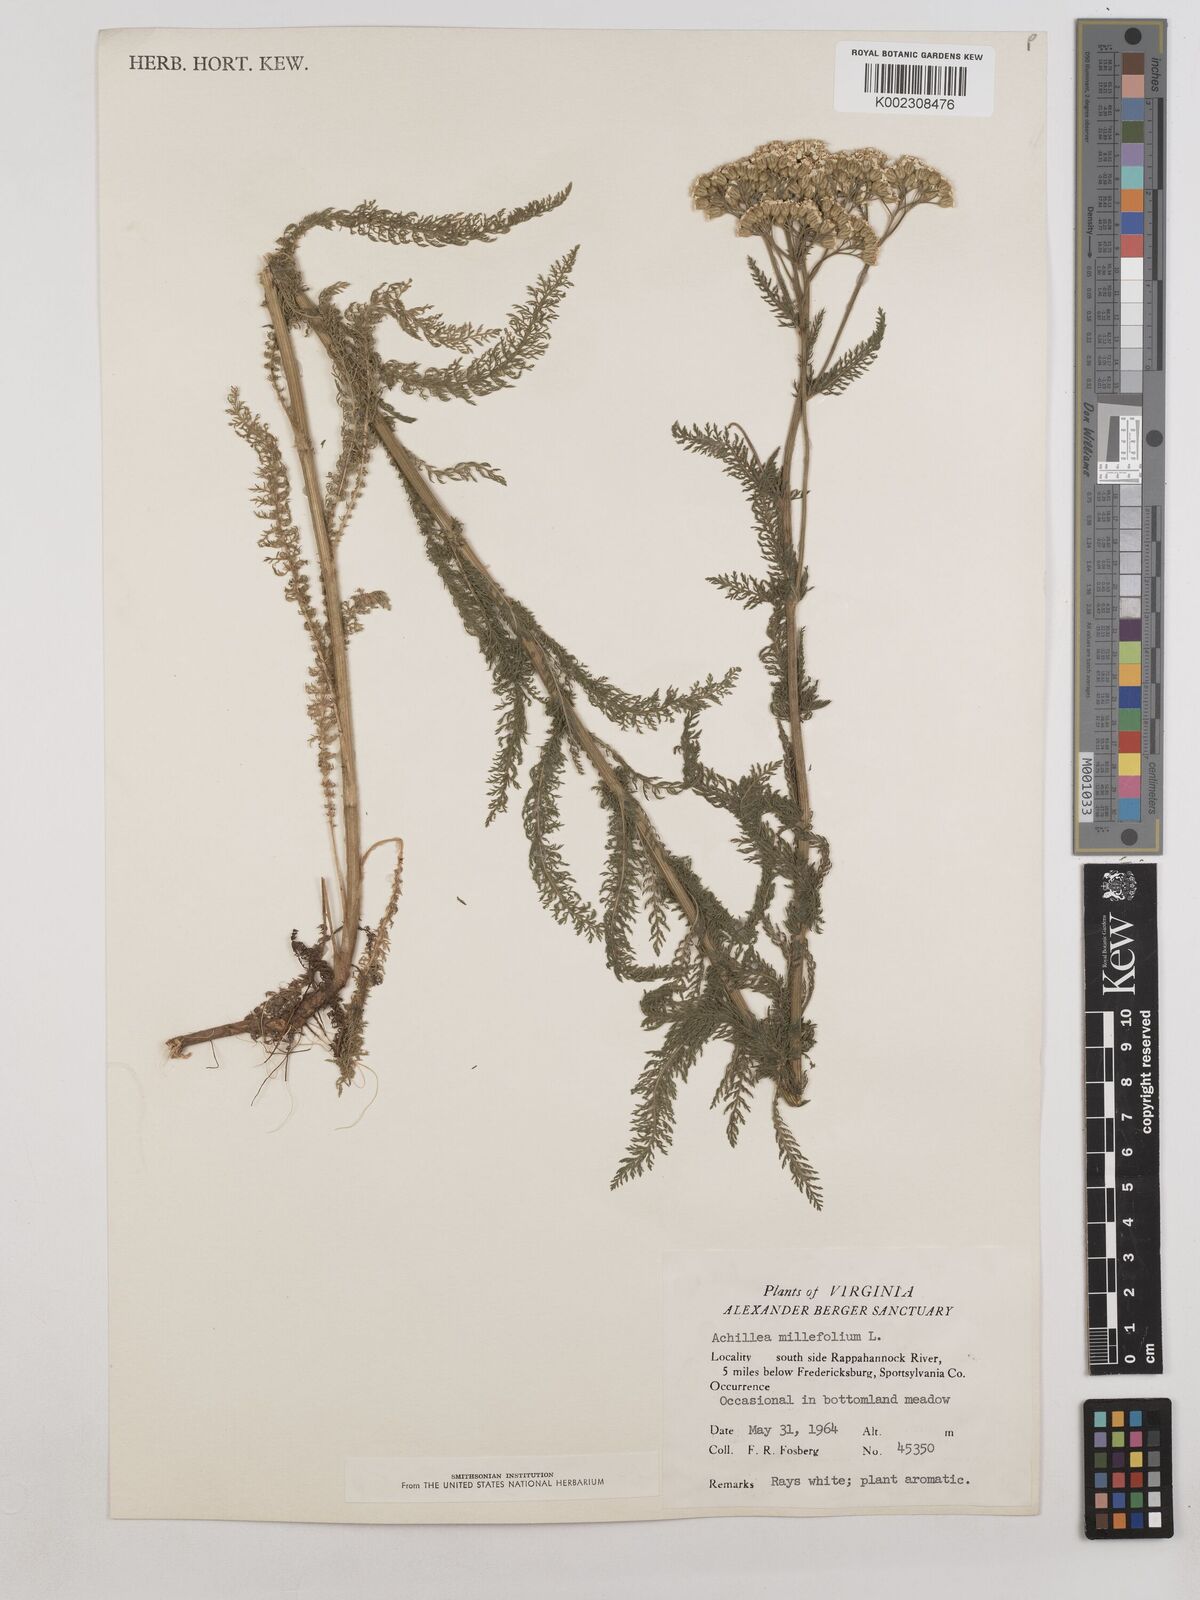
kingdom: Plantae
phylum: Tracheophyta
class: Magnoliopsida
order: Asterales
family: Asteraceae
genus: Achillea
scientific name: Achillea millefolium
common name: Yarrow
